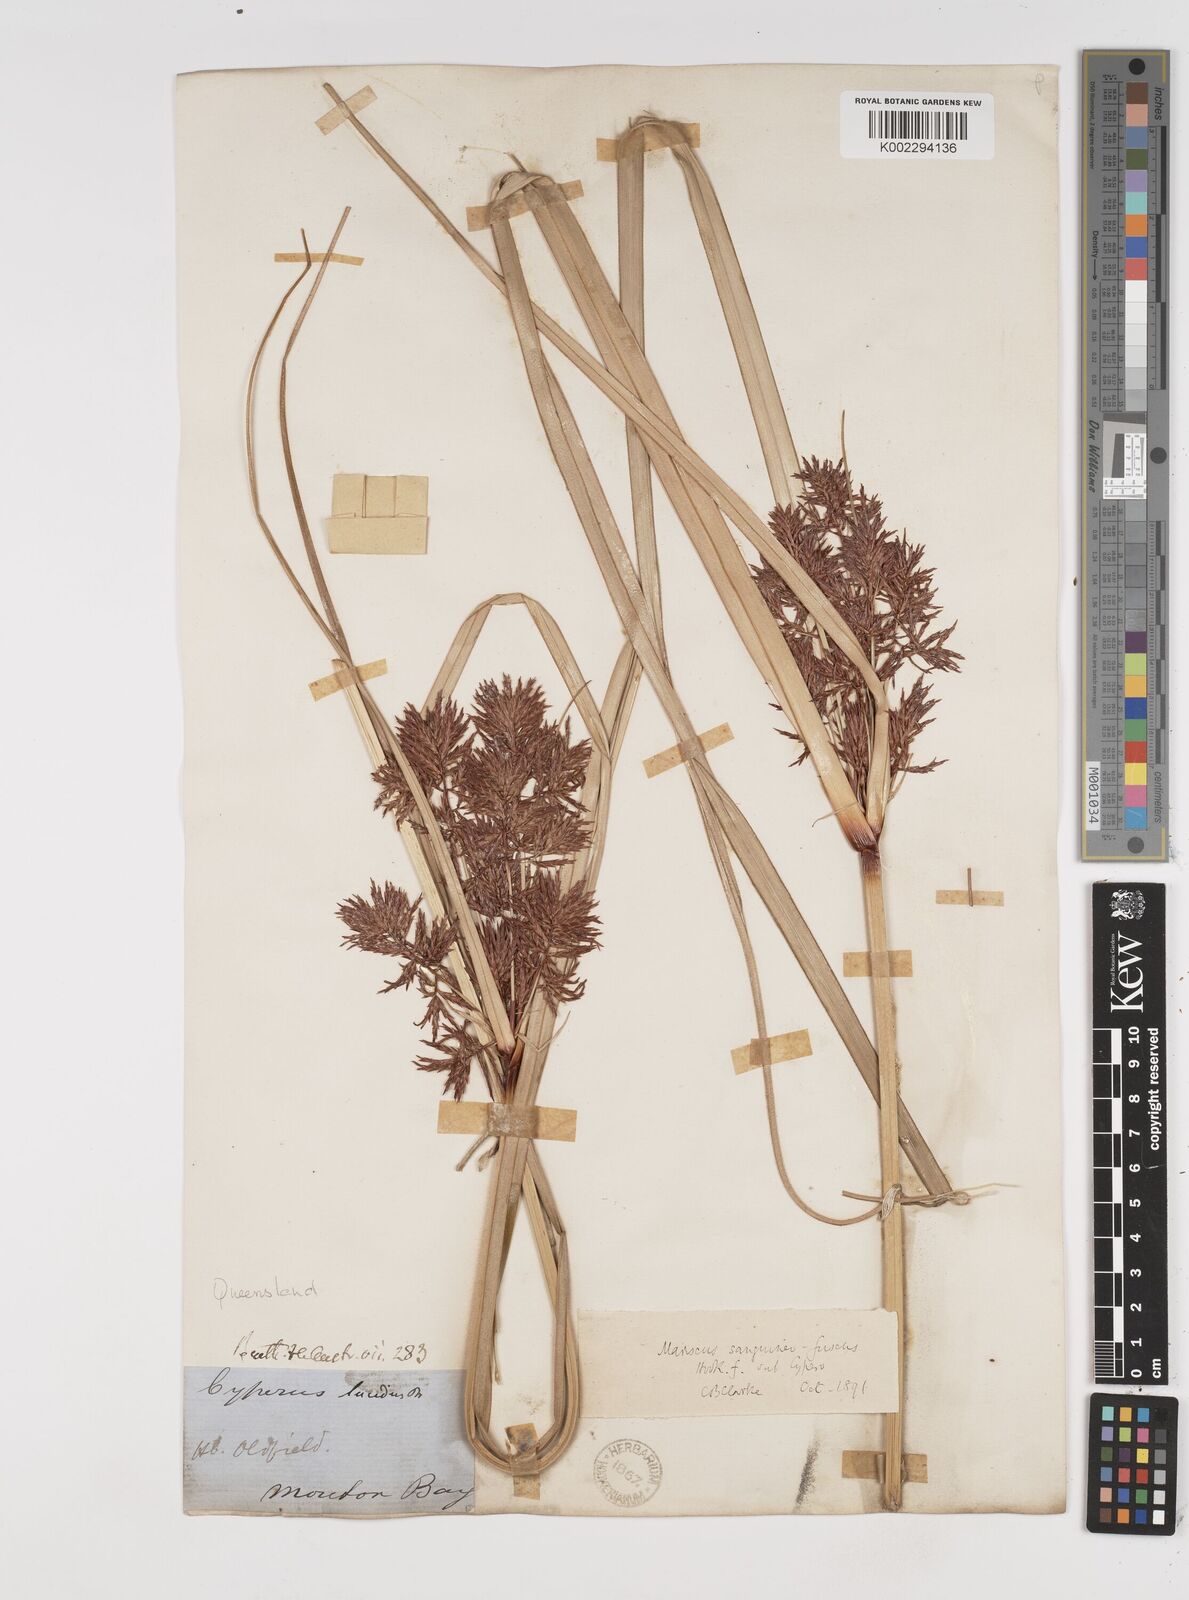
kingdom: Plantae
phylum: Tracheophyta
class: Liliopsida
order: Poales
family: Cyperaceae
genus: Cyperus
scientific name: Cyperus lucidus
